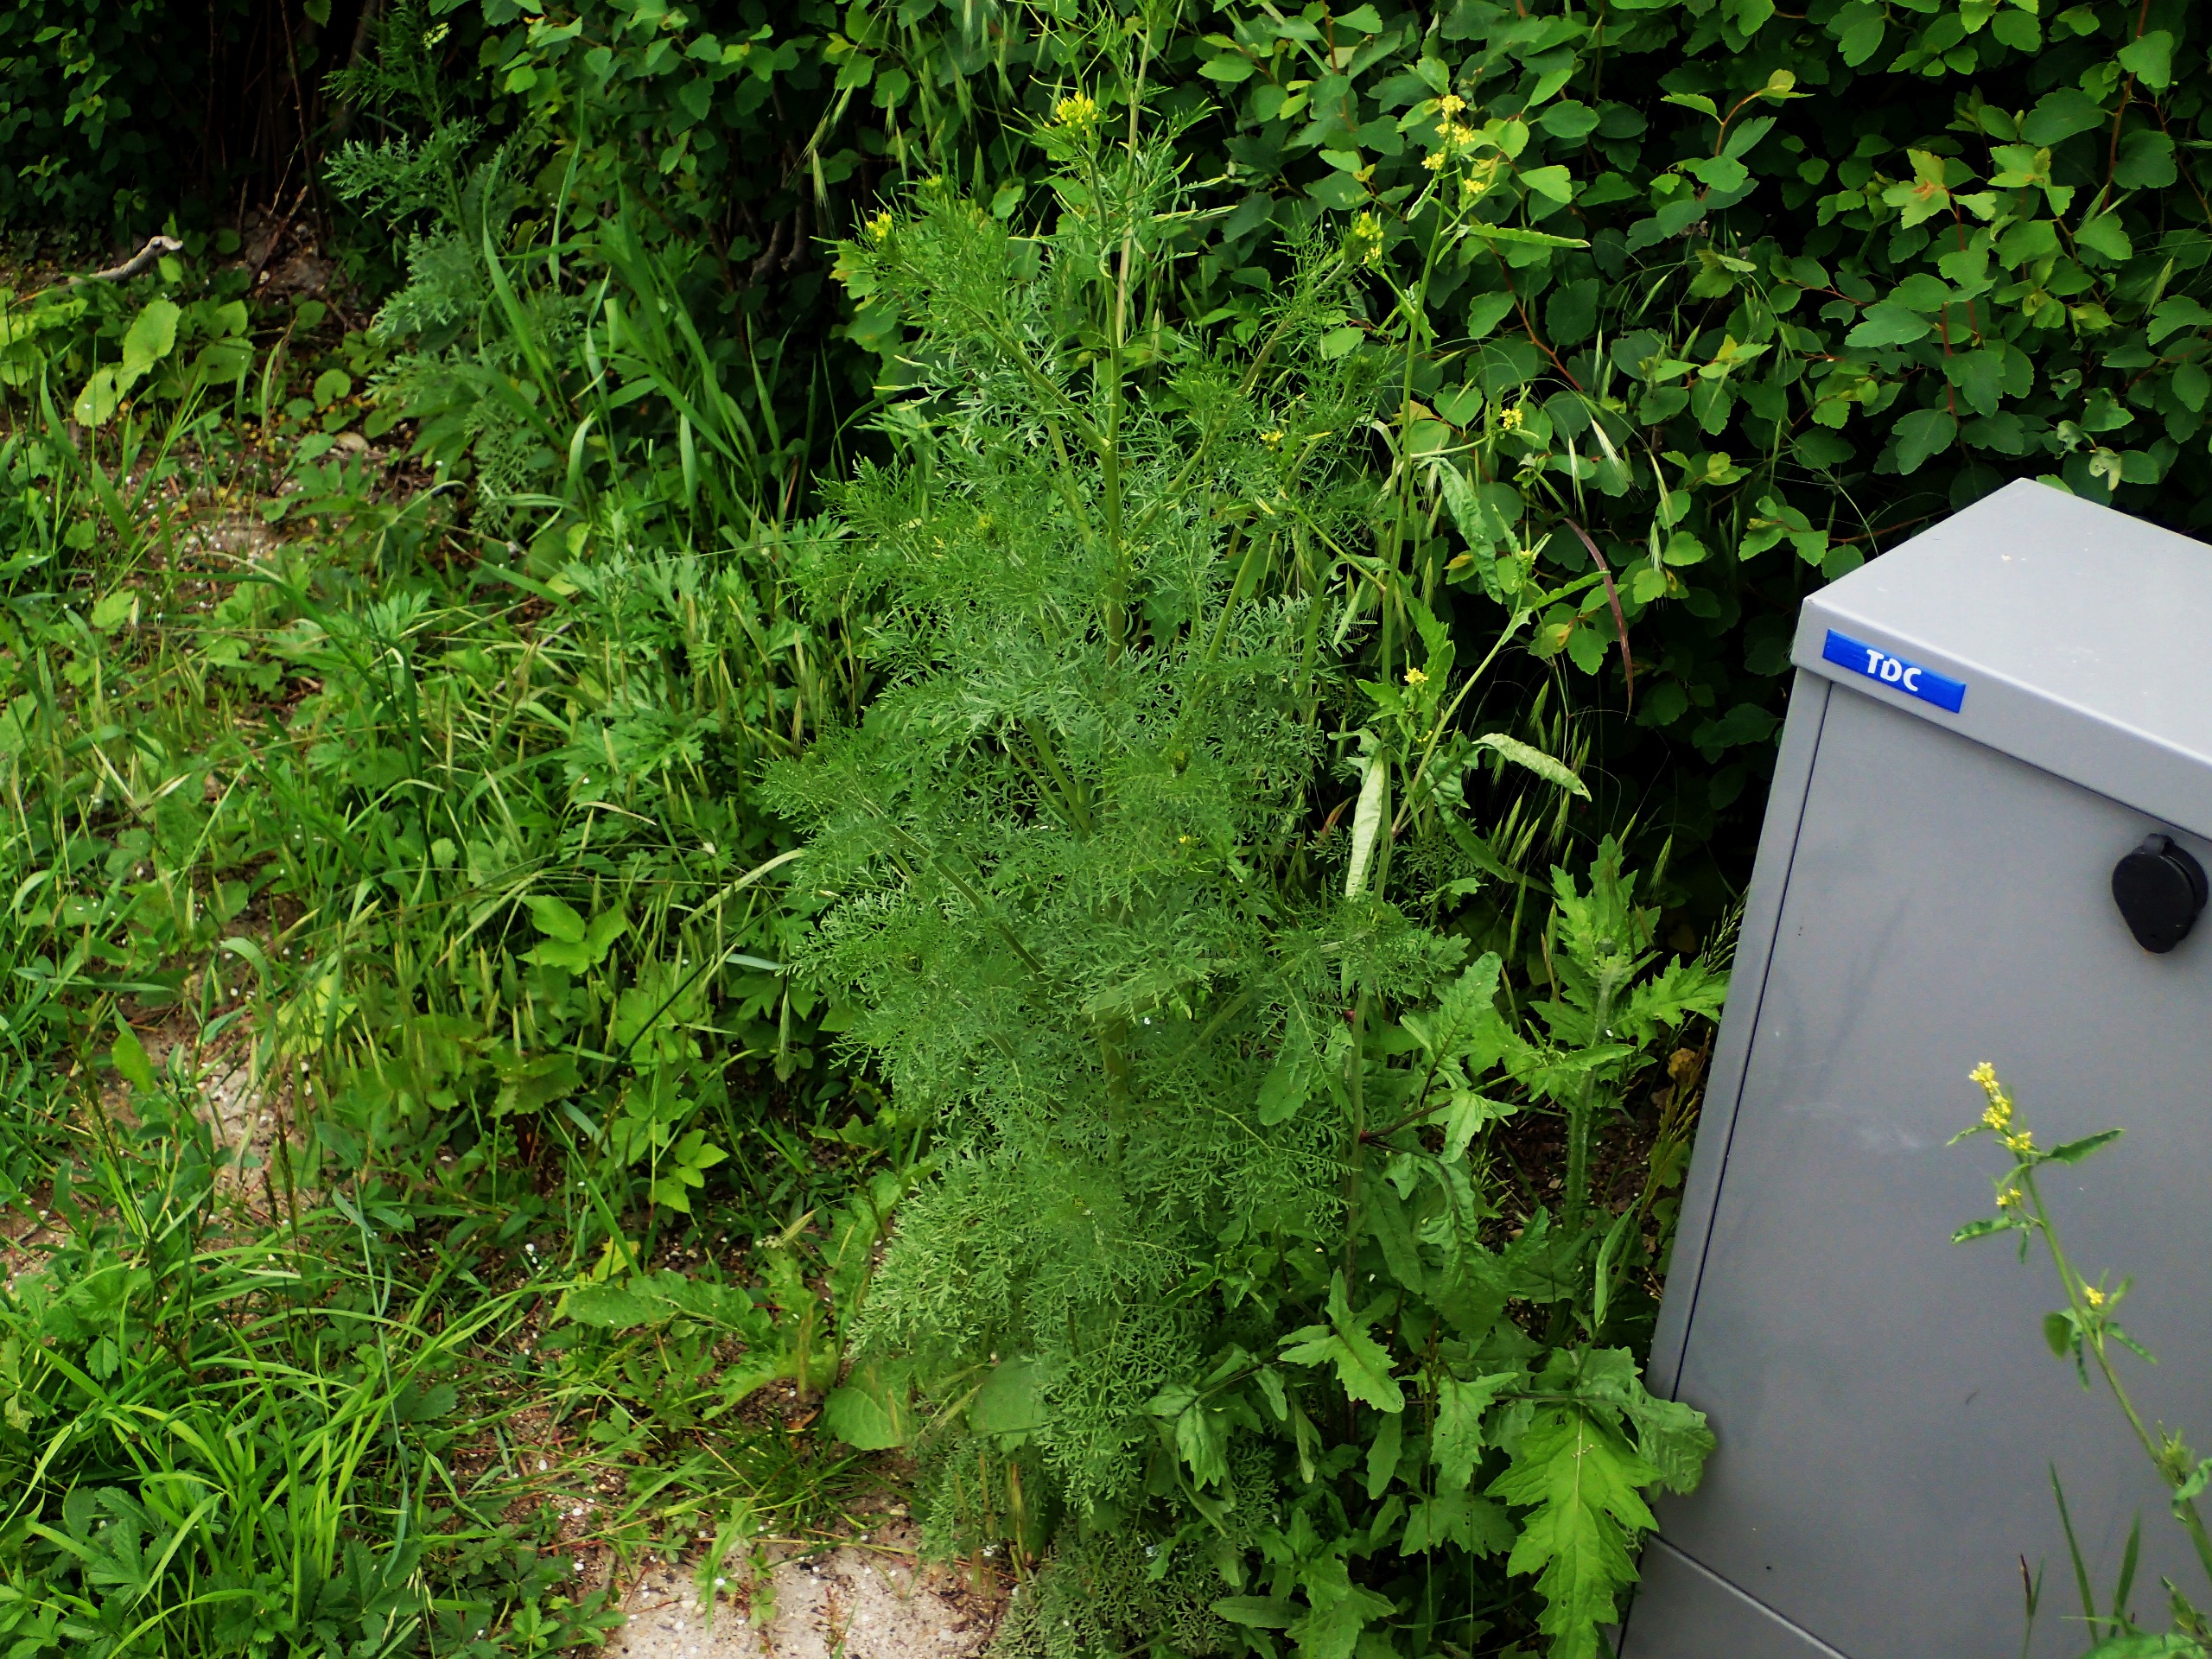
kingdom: Plantae
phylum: Tracheophyta
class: Magnoliopsida
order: Brassicales
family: Brassicaceae
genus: Descurainia
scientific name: Descurainia sophia
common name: Finbladet vejsennep
